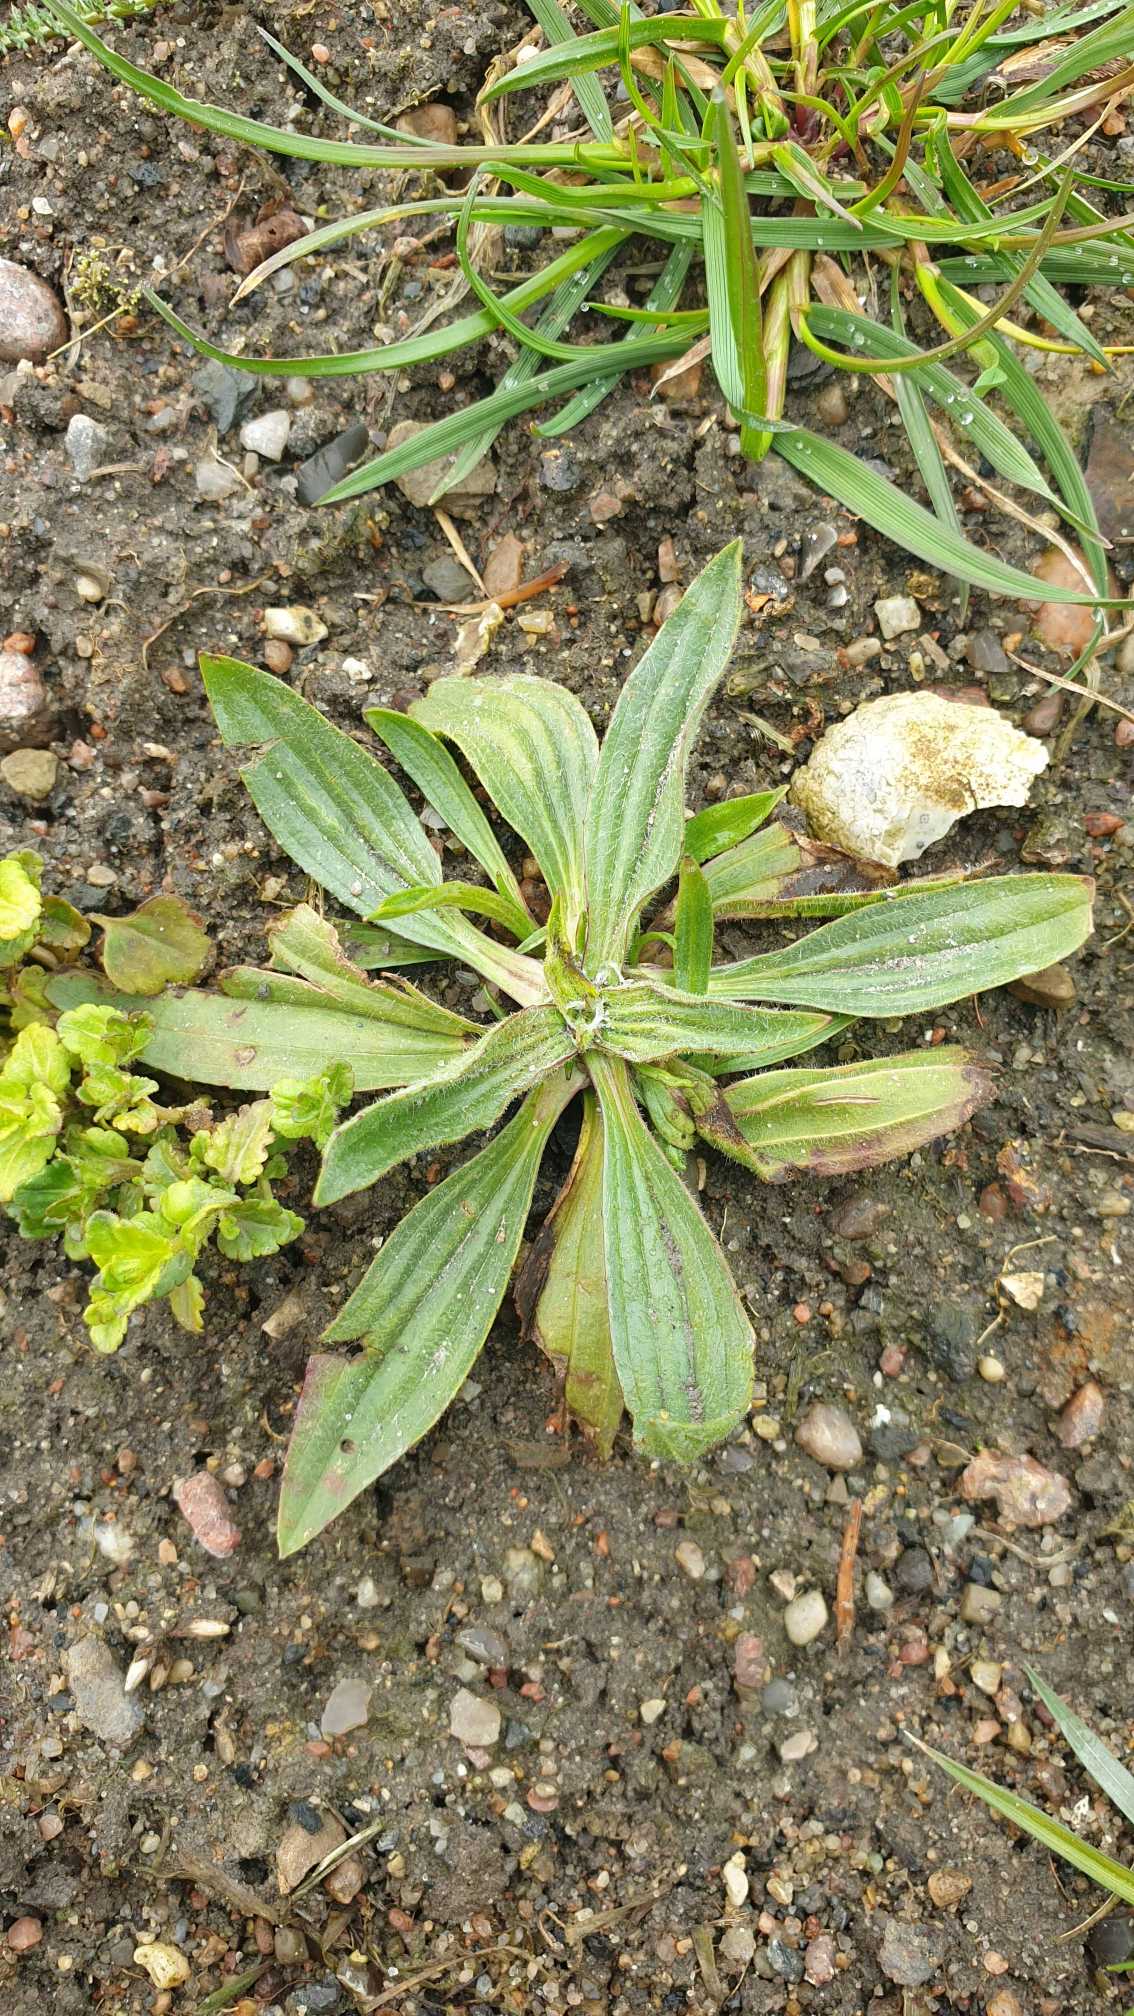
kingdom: Plantae
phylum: Tracheophyta
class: Magnoliopsida
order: Lamiales
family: Plantaginaceae
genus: Plantago
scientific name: Plantago lanceolata
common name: Lancet-vejbred
